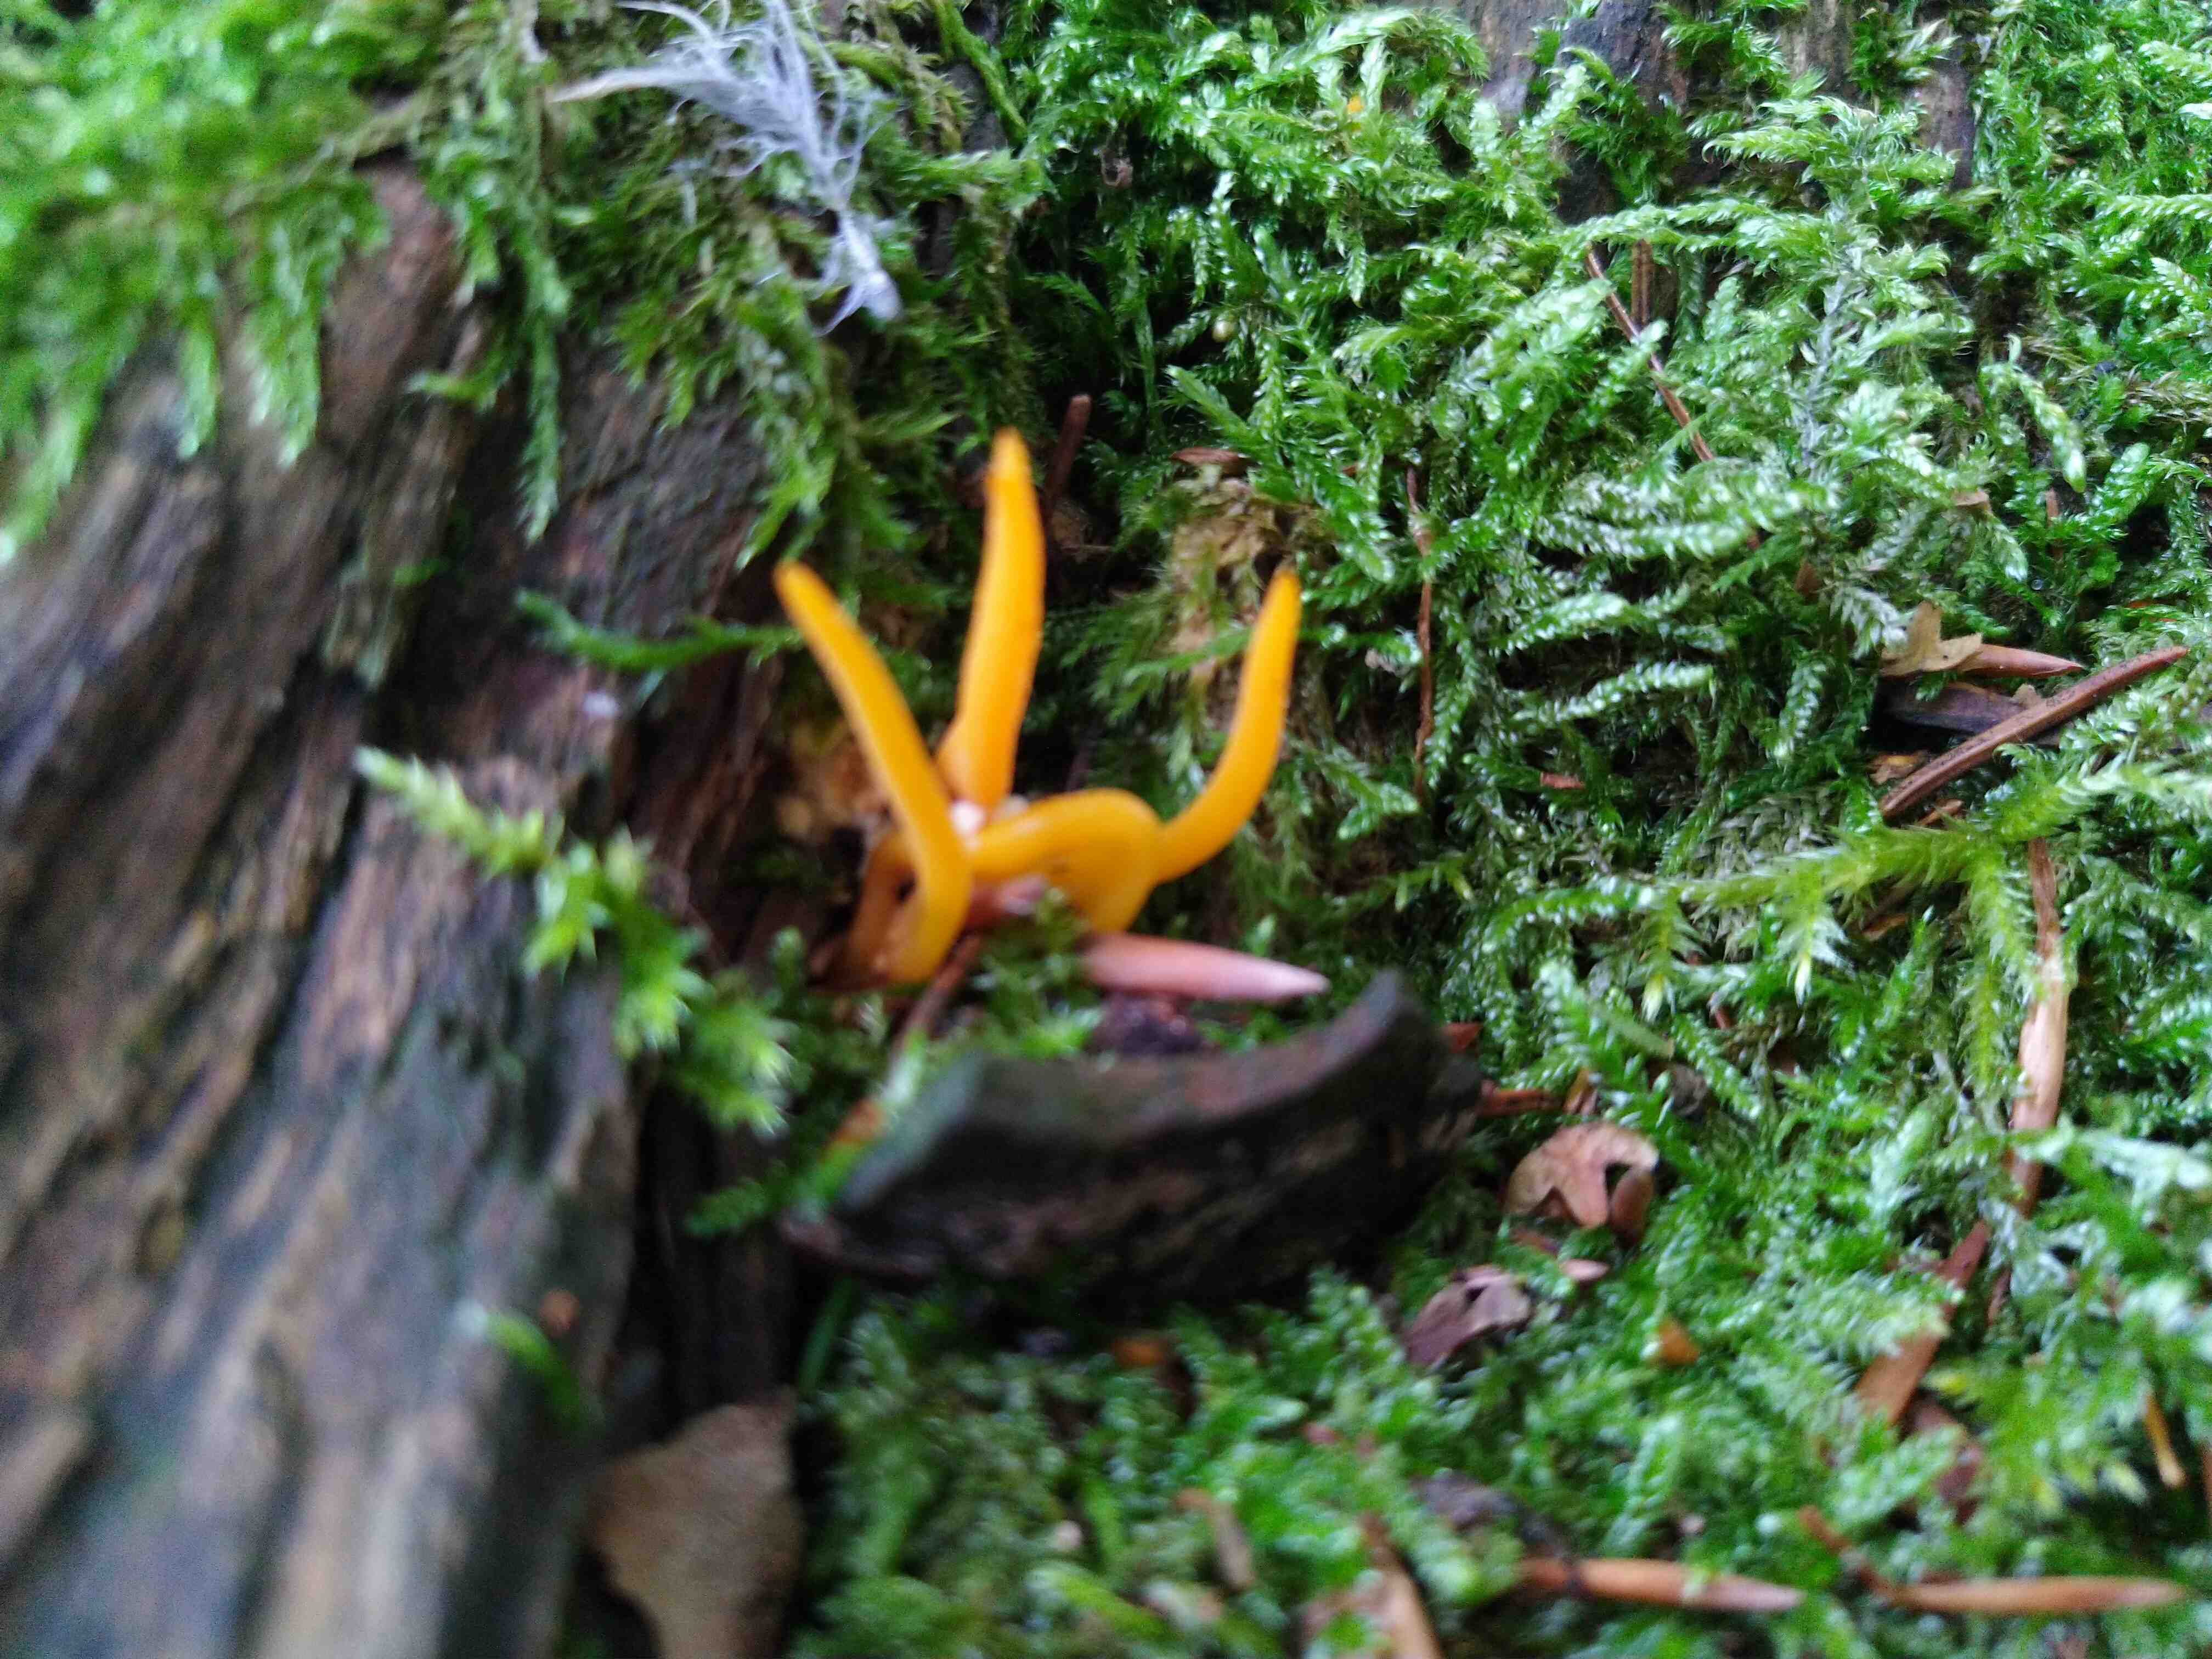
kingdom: Fungi
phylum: Basidiomycota
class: Dacrymycetes
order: Dacrymycetales
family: Dacrymycetaceae
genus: Calocera
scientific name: Calocera viscosa
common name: almindelig guldgaffel
